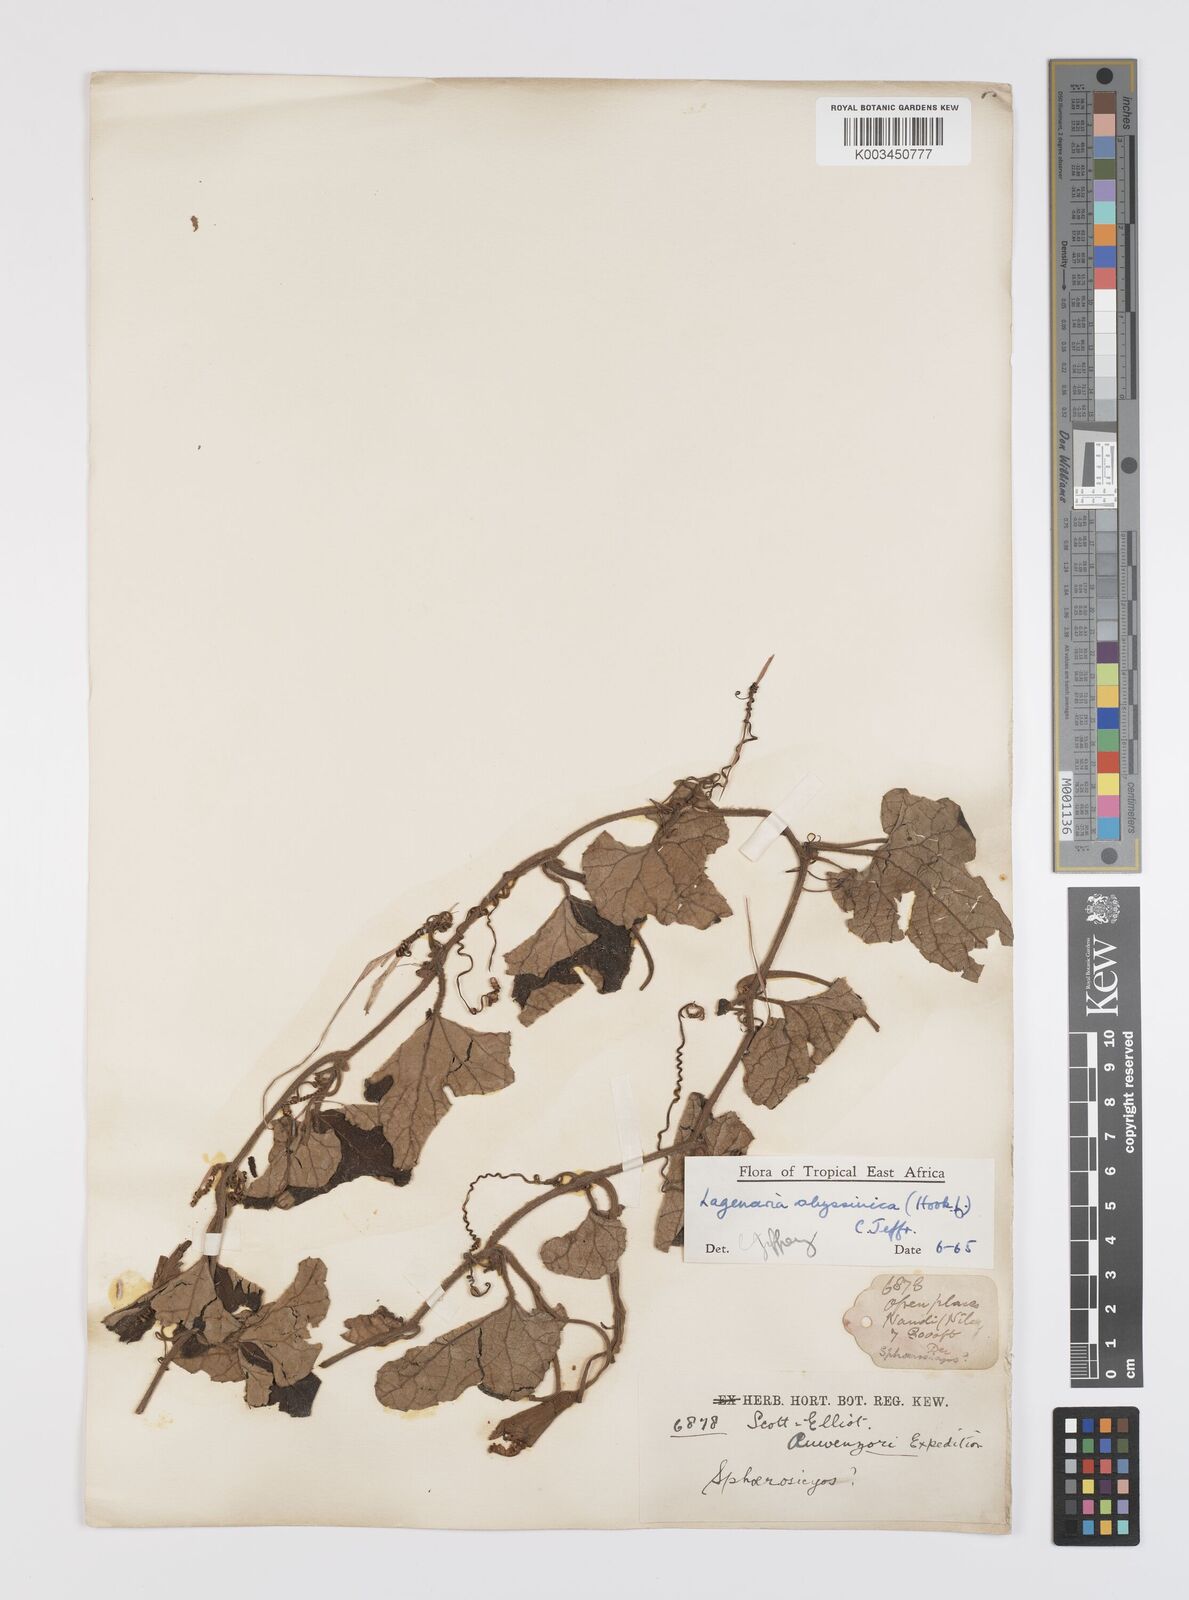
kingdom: Plantae
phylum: Tracheophyta
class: Magnoliopsida
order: Cucurbitales
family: Cucurbitaceae
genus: Lagenaria
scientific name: Lagenaria abyssinica
